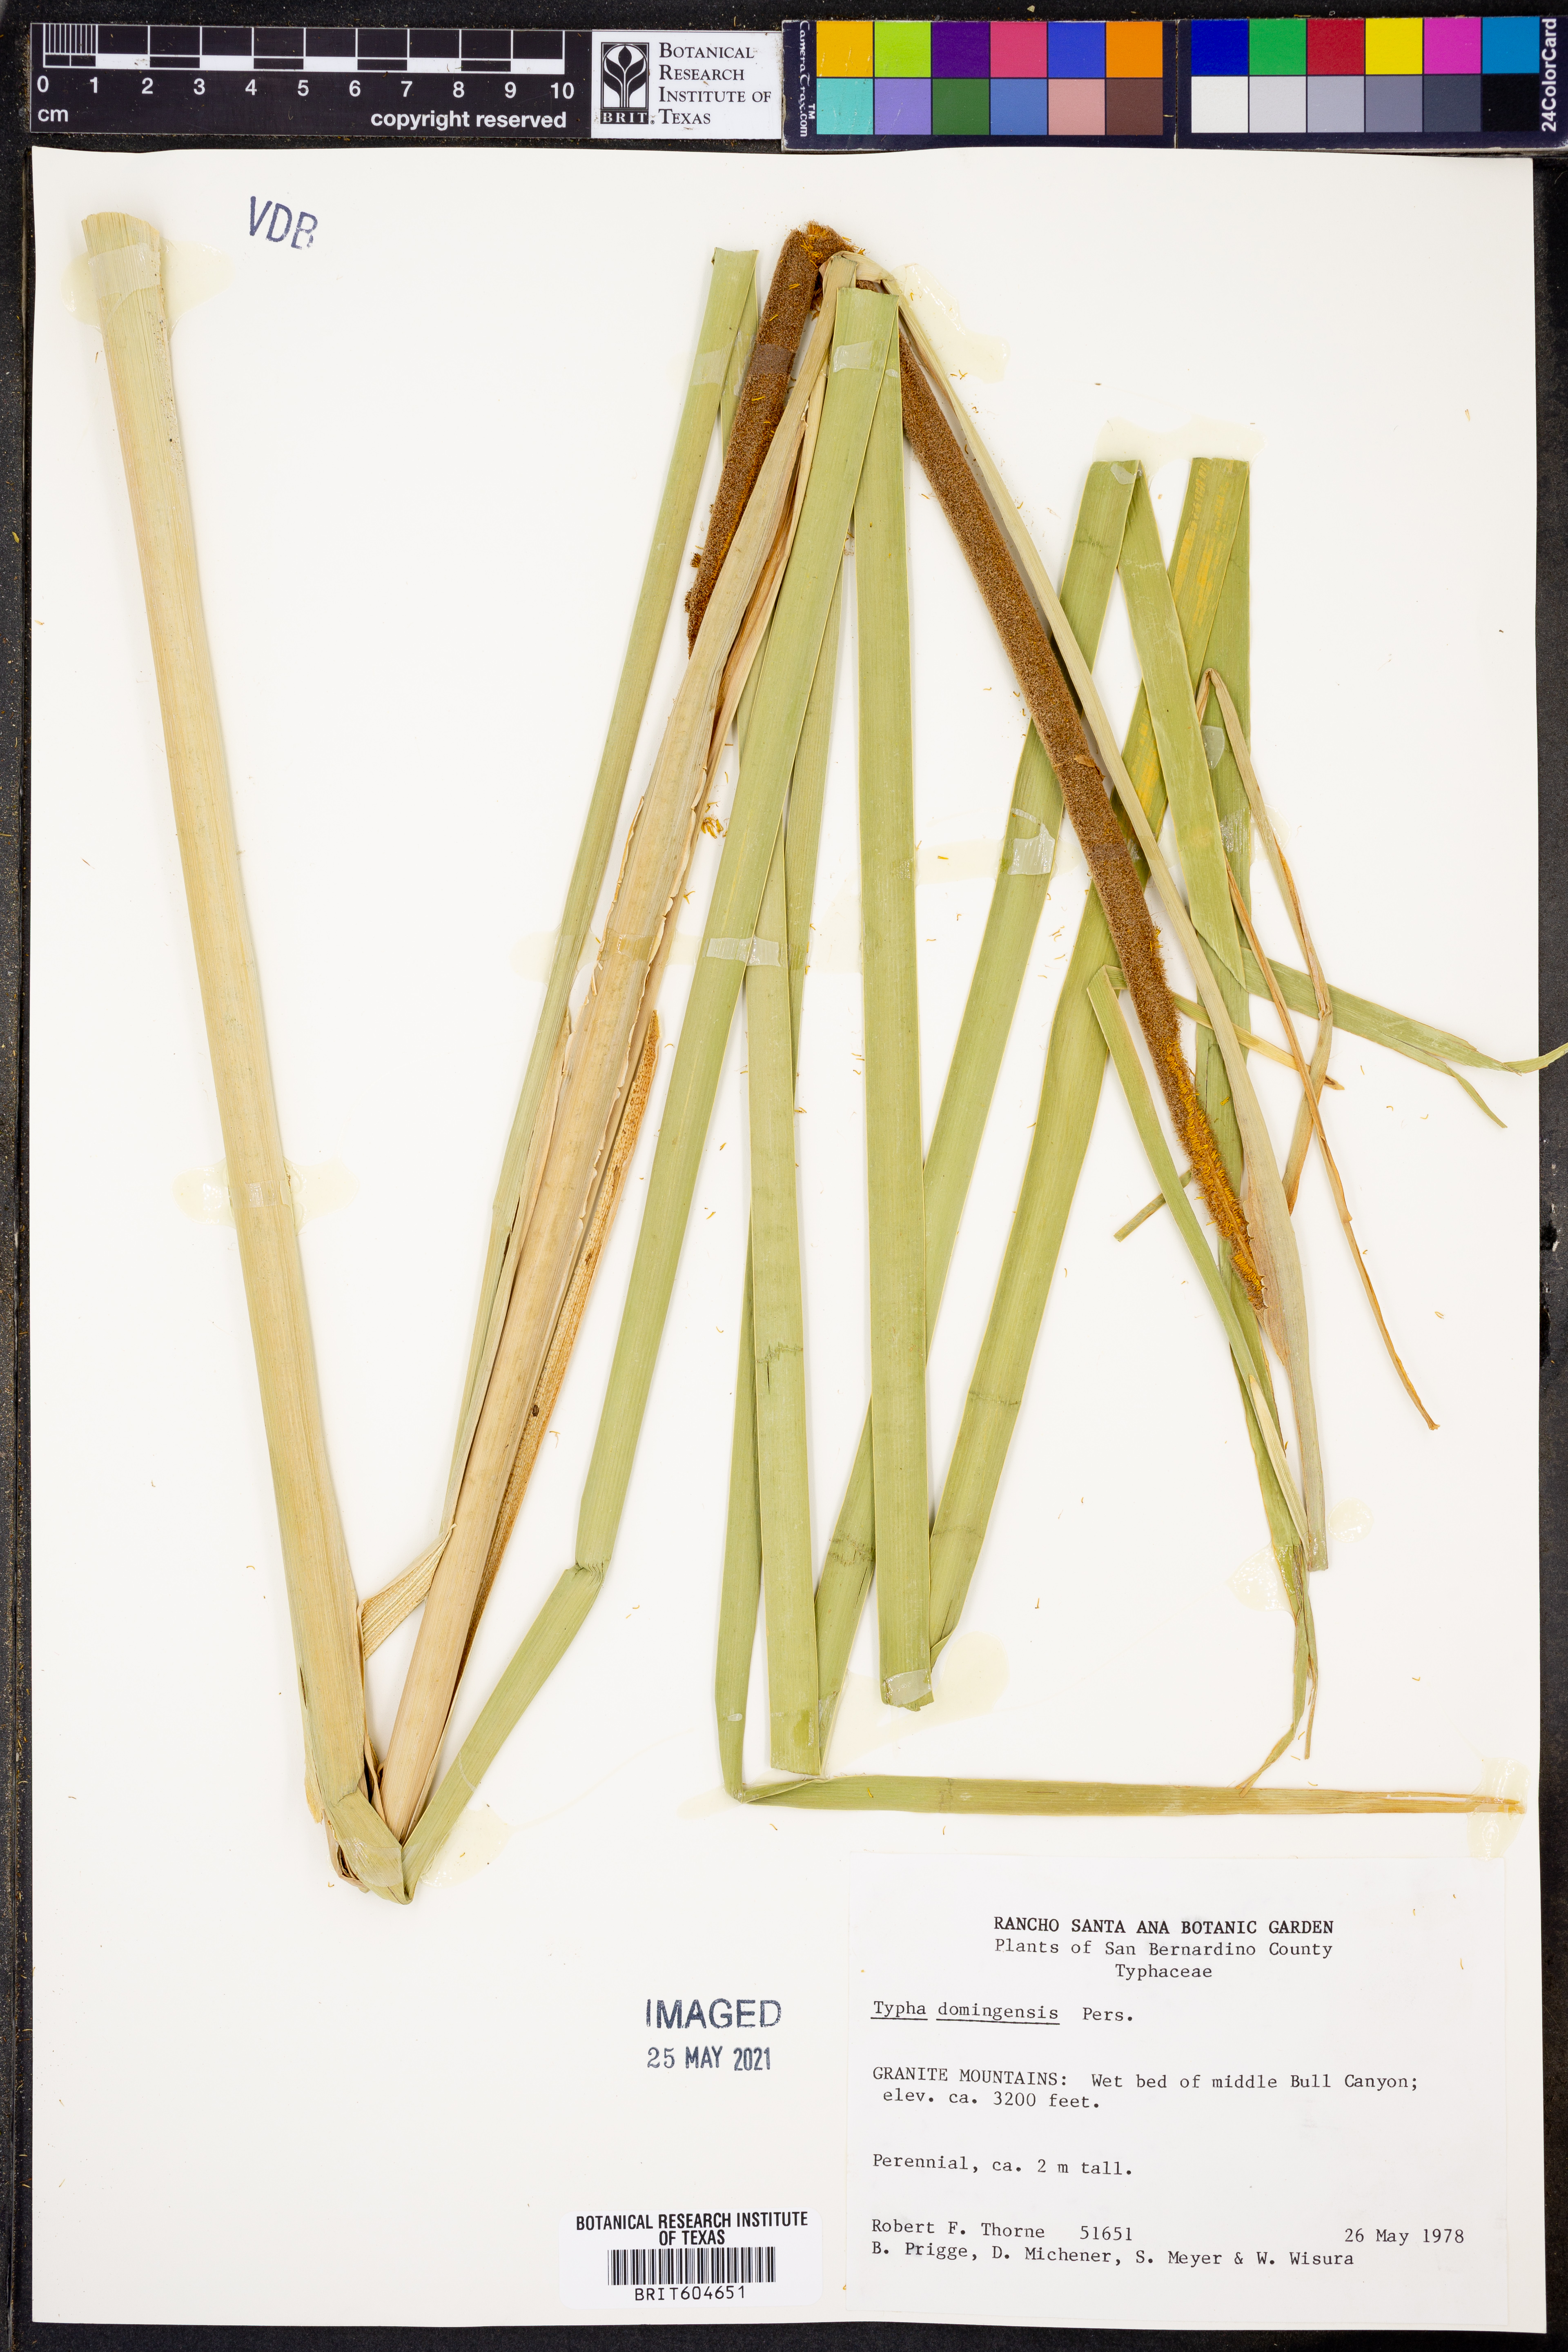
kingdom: Plantae
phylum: Tracheophyta
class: Liliopsida
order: Poales
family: Typhaceae
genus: Typha
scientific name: Typha domingensis
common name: Southern cattail
